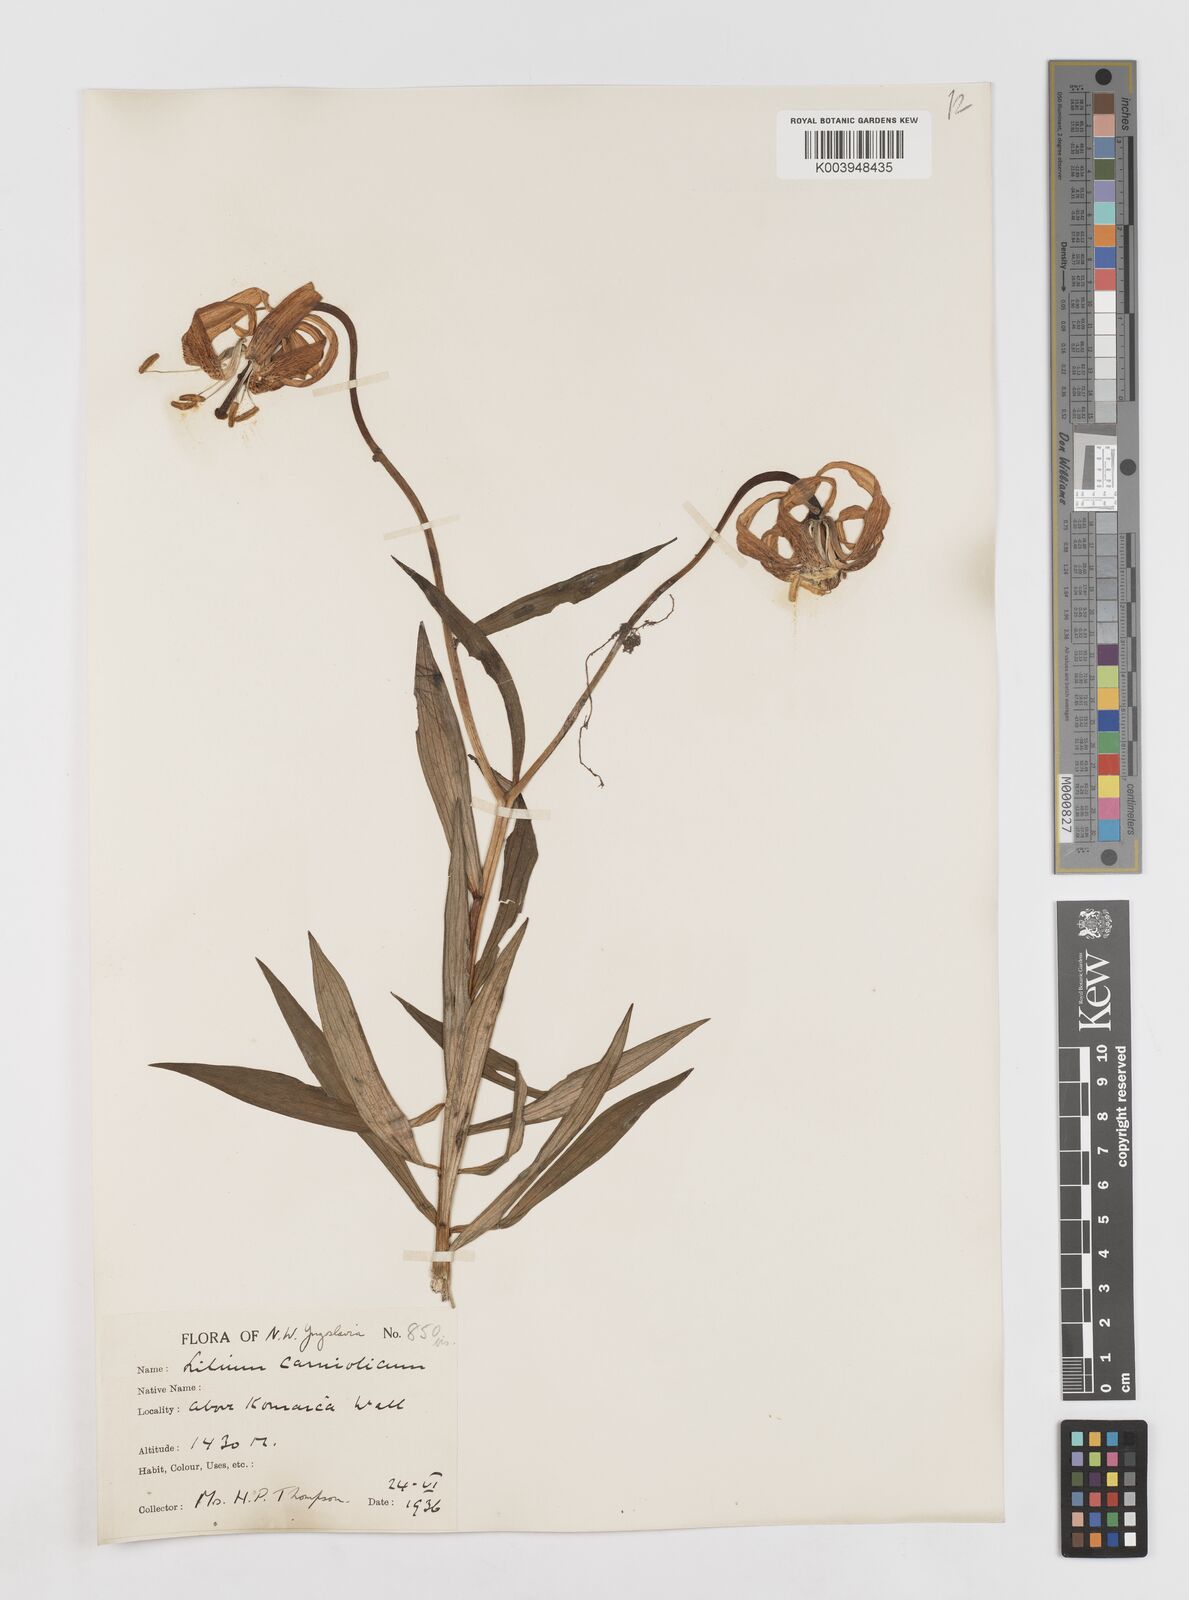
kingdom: Plantae
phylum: Tracheophyta
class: Liliopsida
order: Liliales
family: Liliaceae
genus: Lilium
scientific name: Lilium carniolicum
